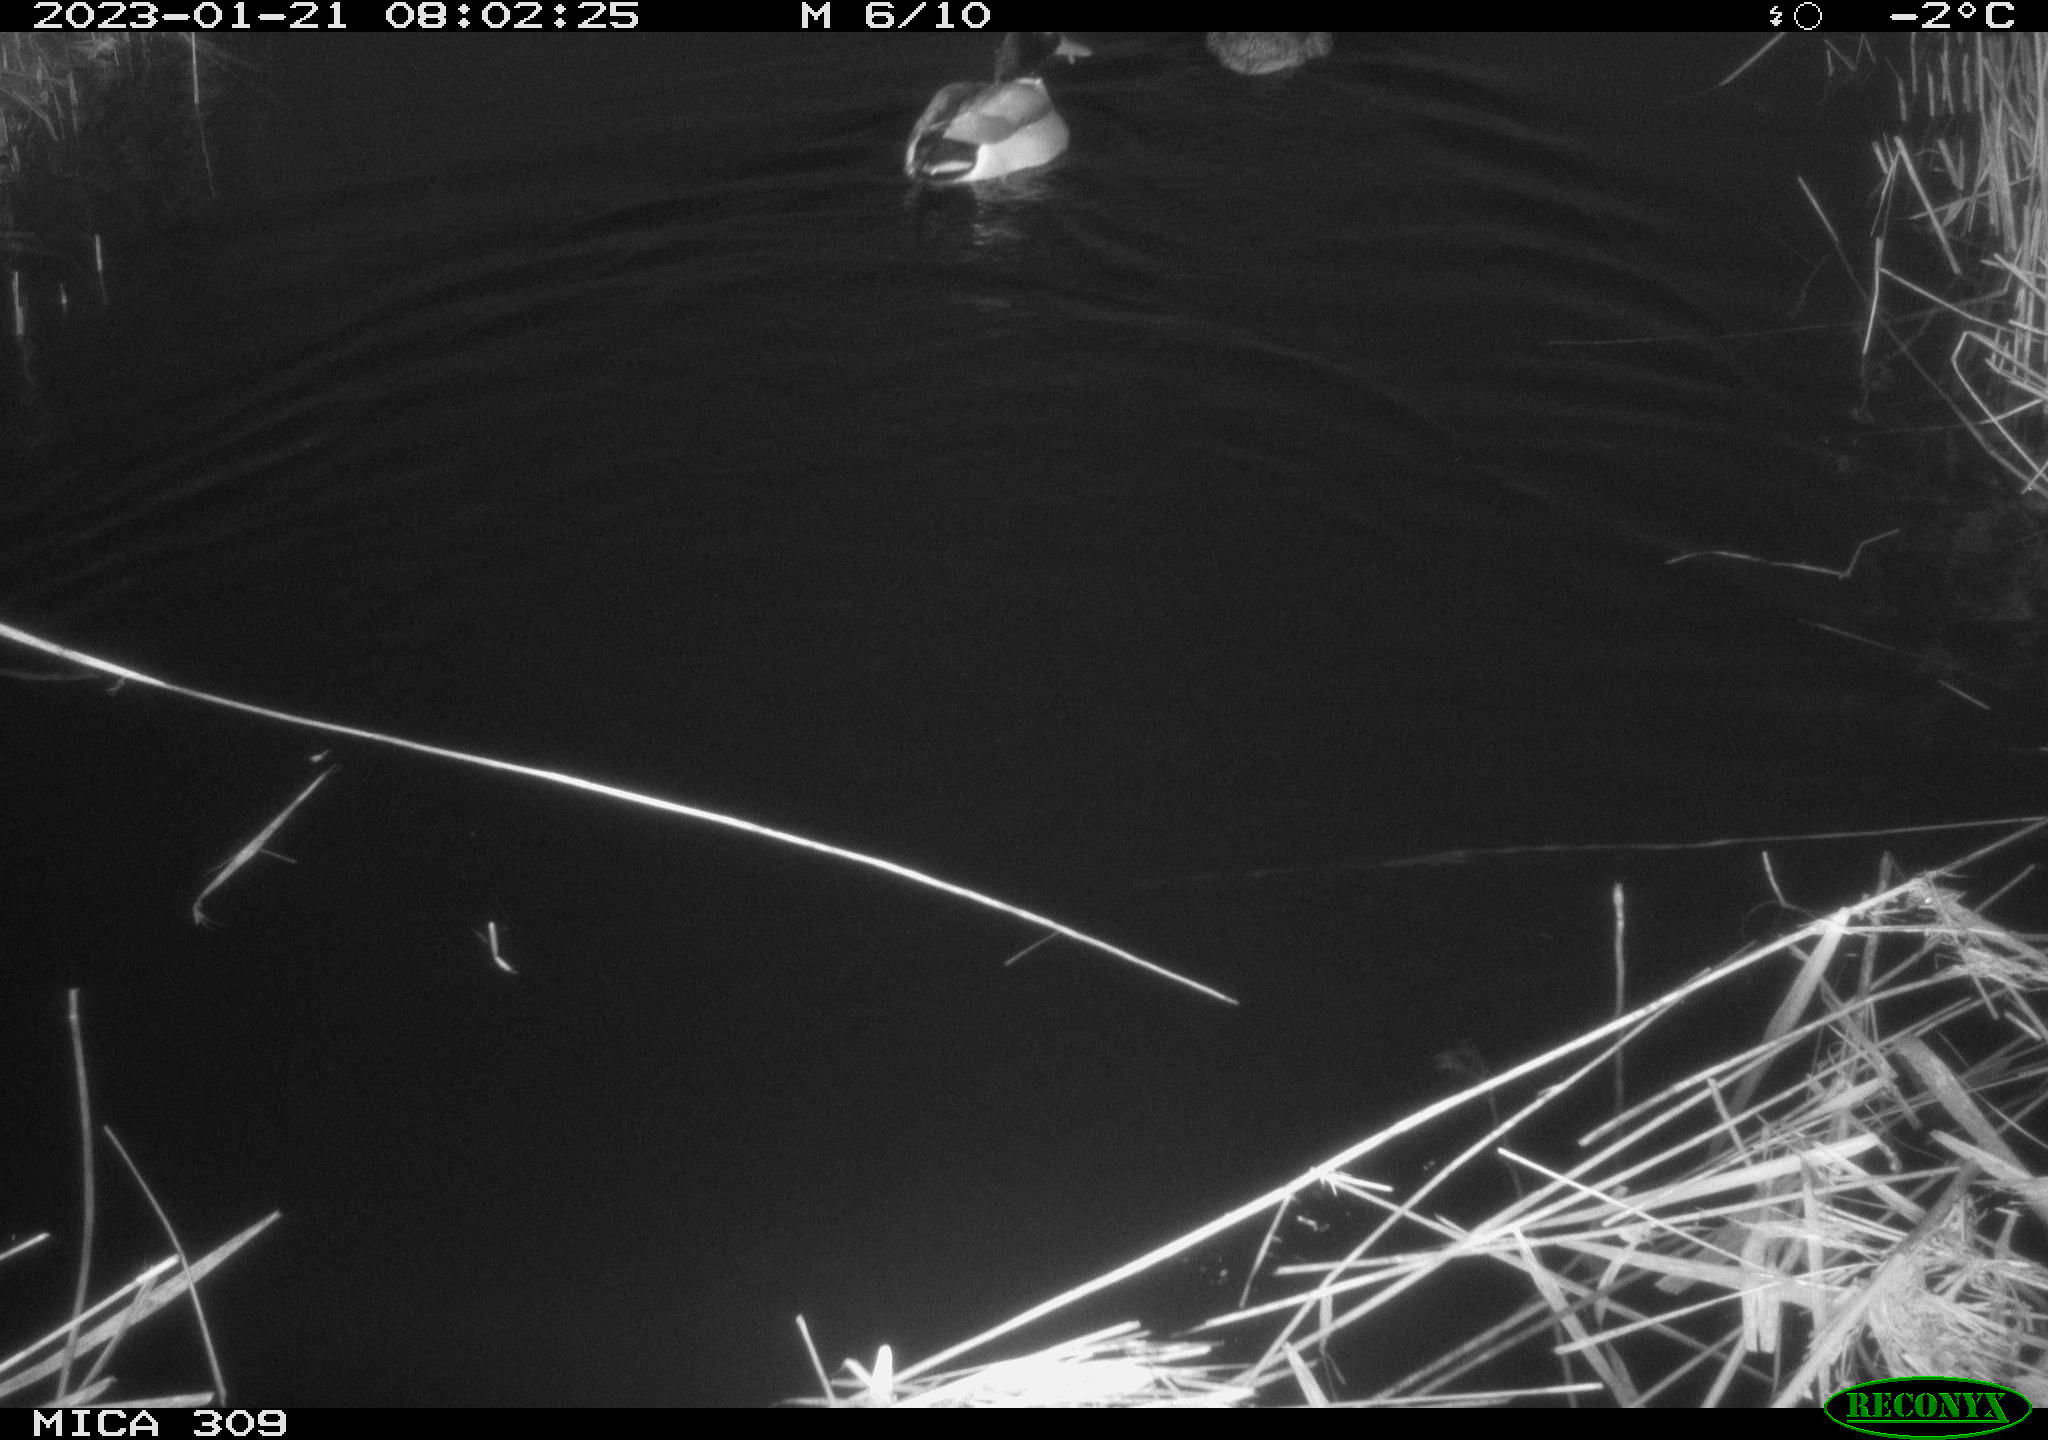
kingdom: Animalia
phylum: Chordata
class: Aves
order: Anseriformes
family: Anatidae
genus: Anas
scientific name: Anas
